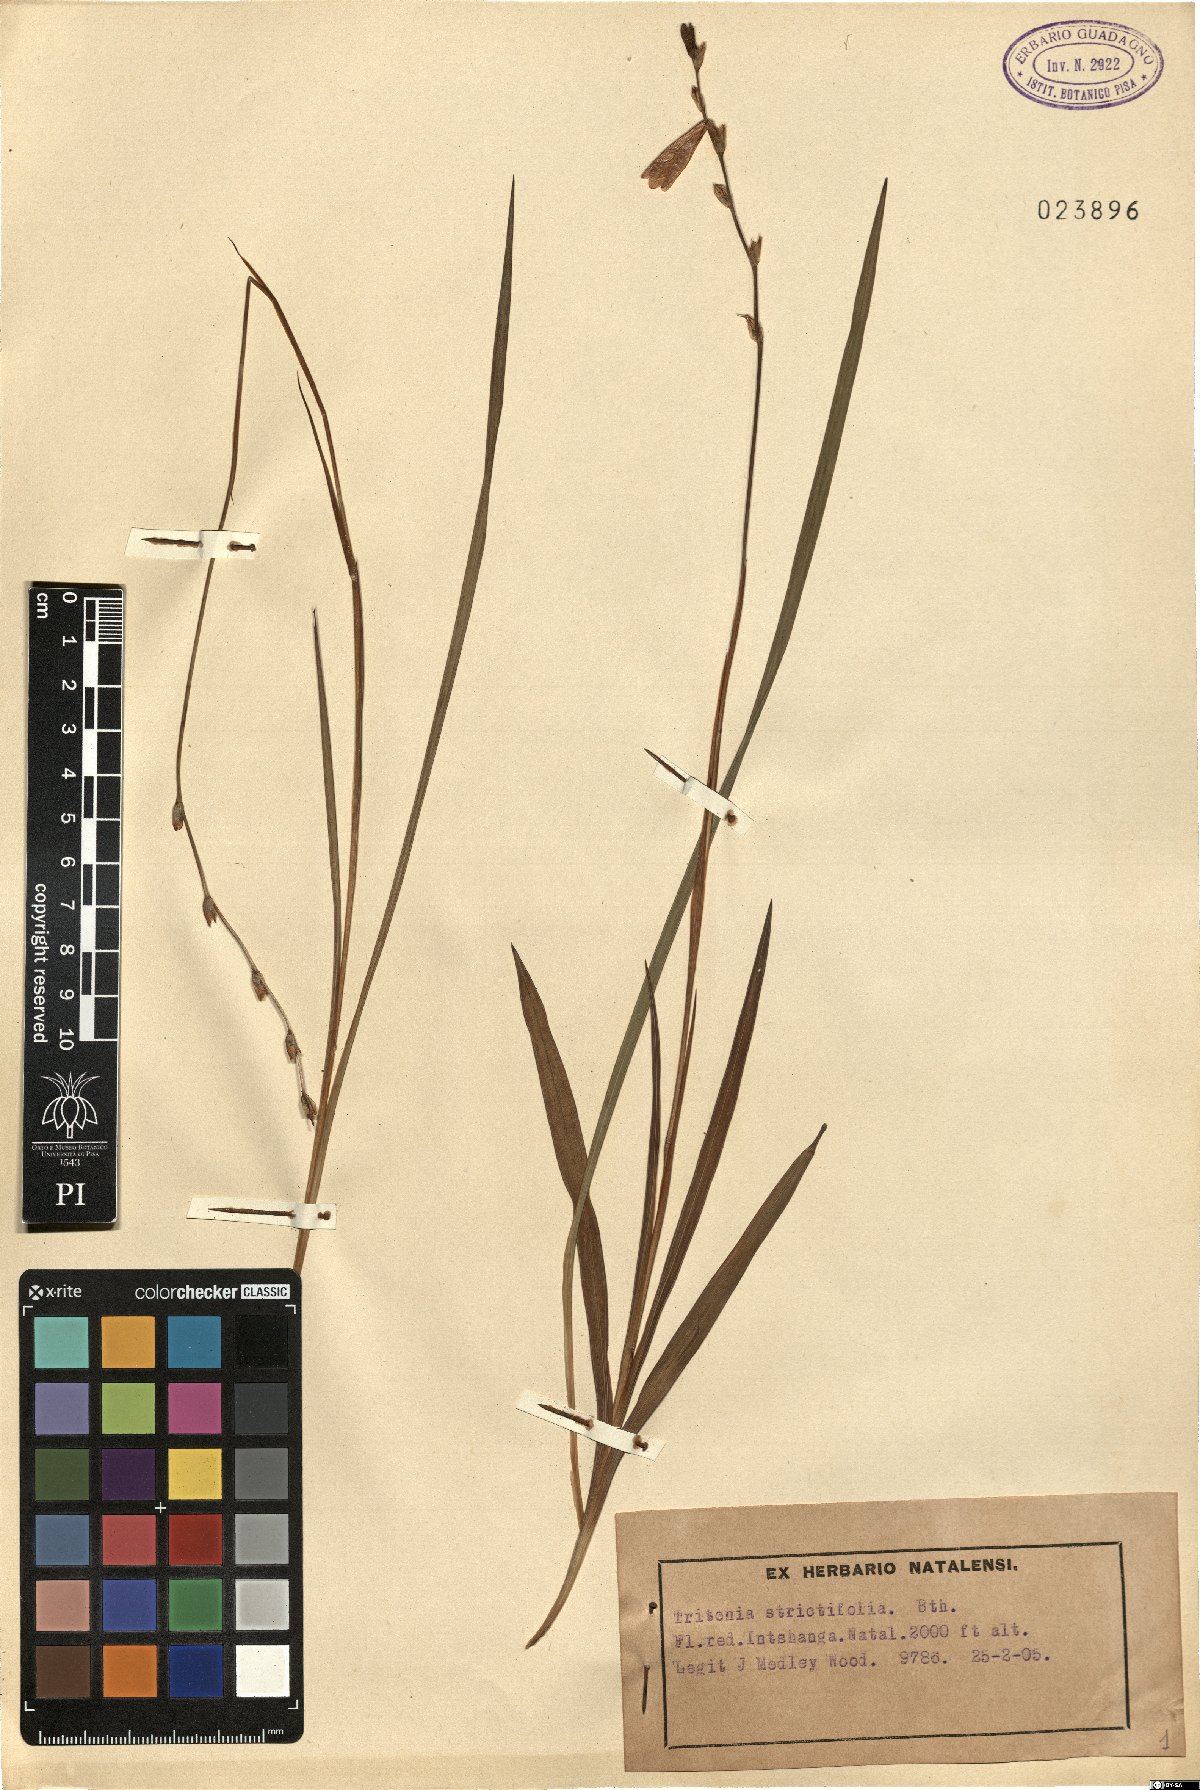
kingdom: Plantae
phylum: Tracheophyta
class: Liliopsida
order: Asparagales
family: Iridaceae
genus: Tritonia
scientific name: Tritonia laxifolia
